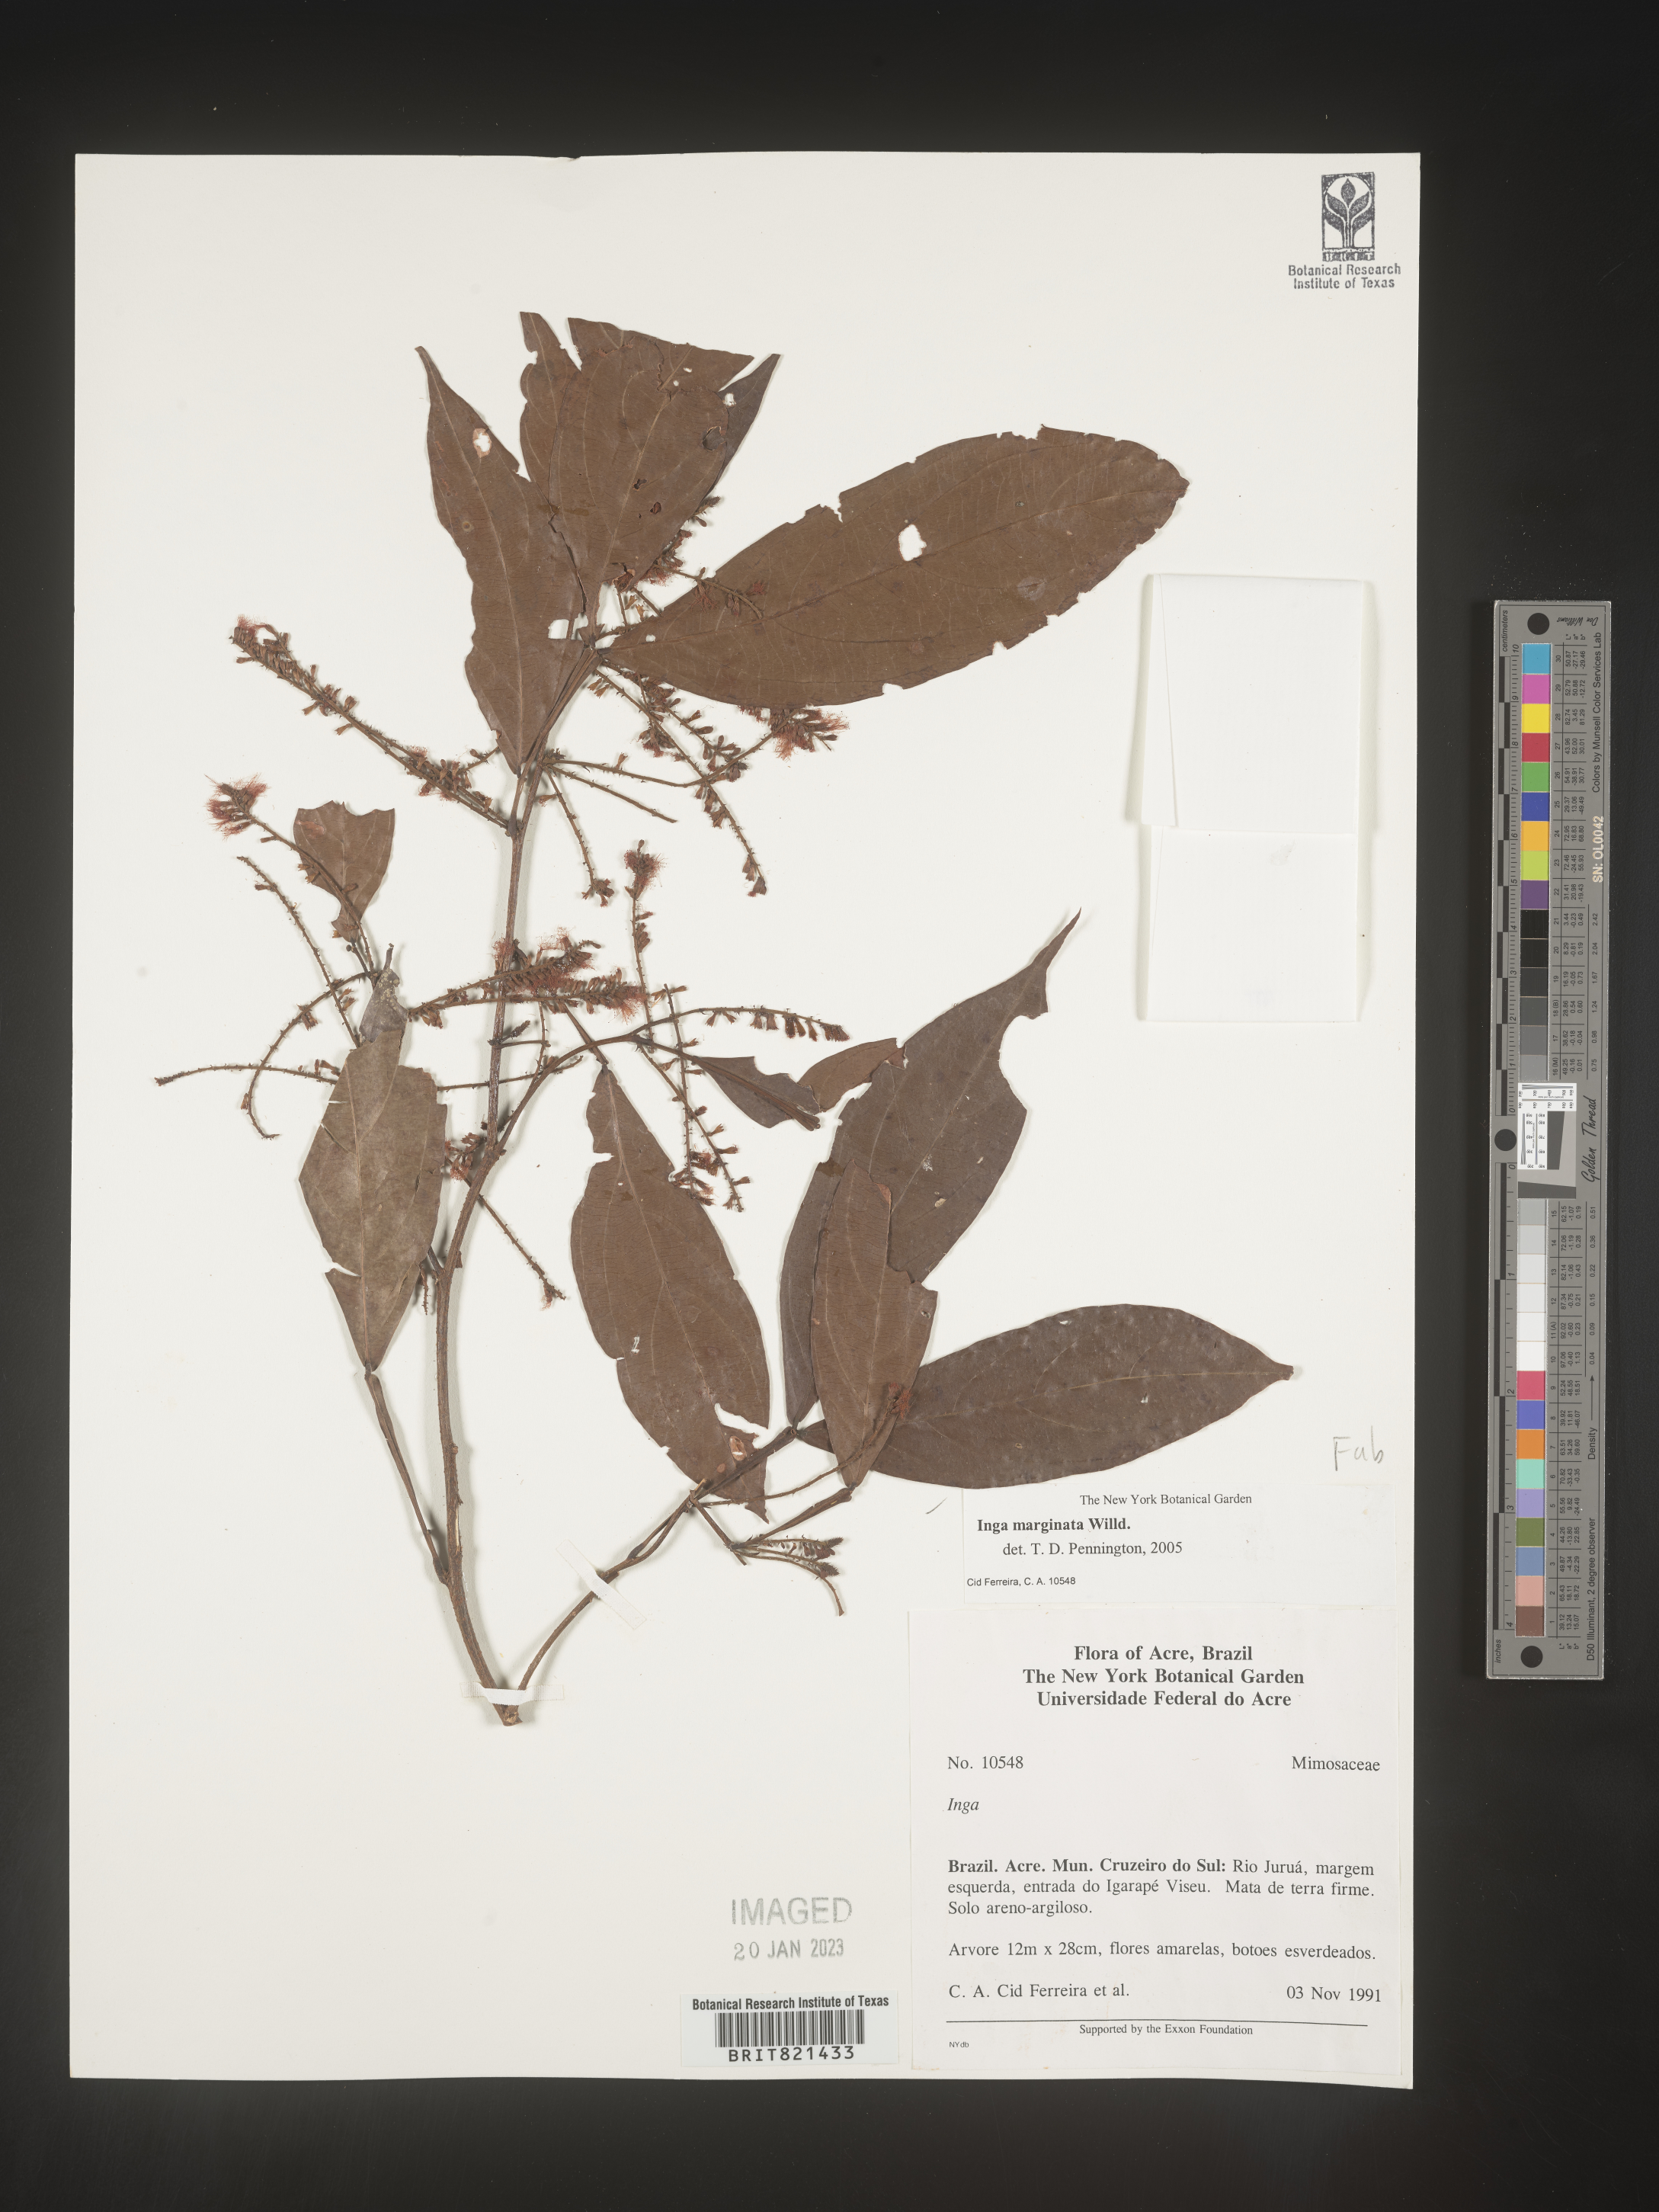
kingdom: Plantae
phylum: Tracheophyta
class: Magnoliopsida
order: Fabales
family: Fabaceae
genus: Inga
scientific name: Inga
